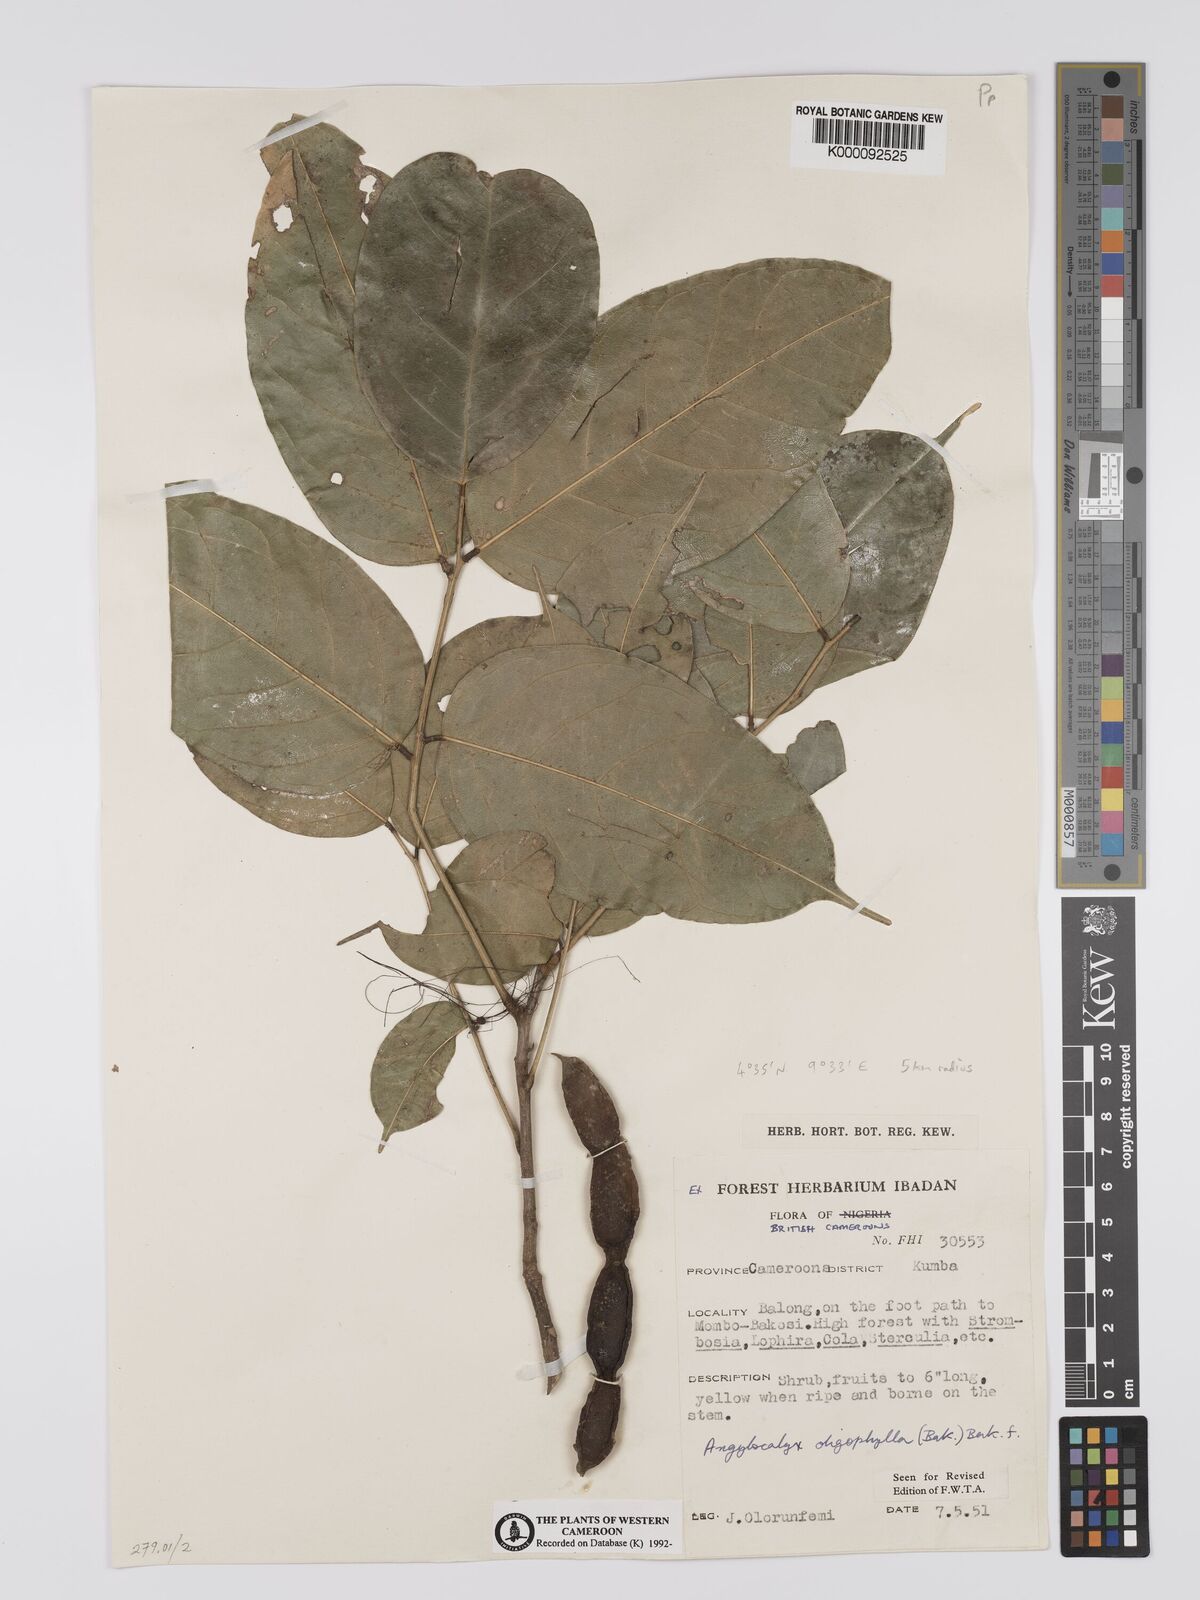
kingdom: Plantae
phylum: Tracheophyta
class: Magnoliopsida
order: Fabales
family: Fabaceae
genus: Angylocalyx
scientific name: Angylocalyx oligophyllus
